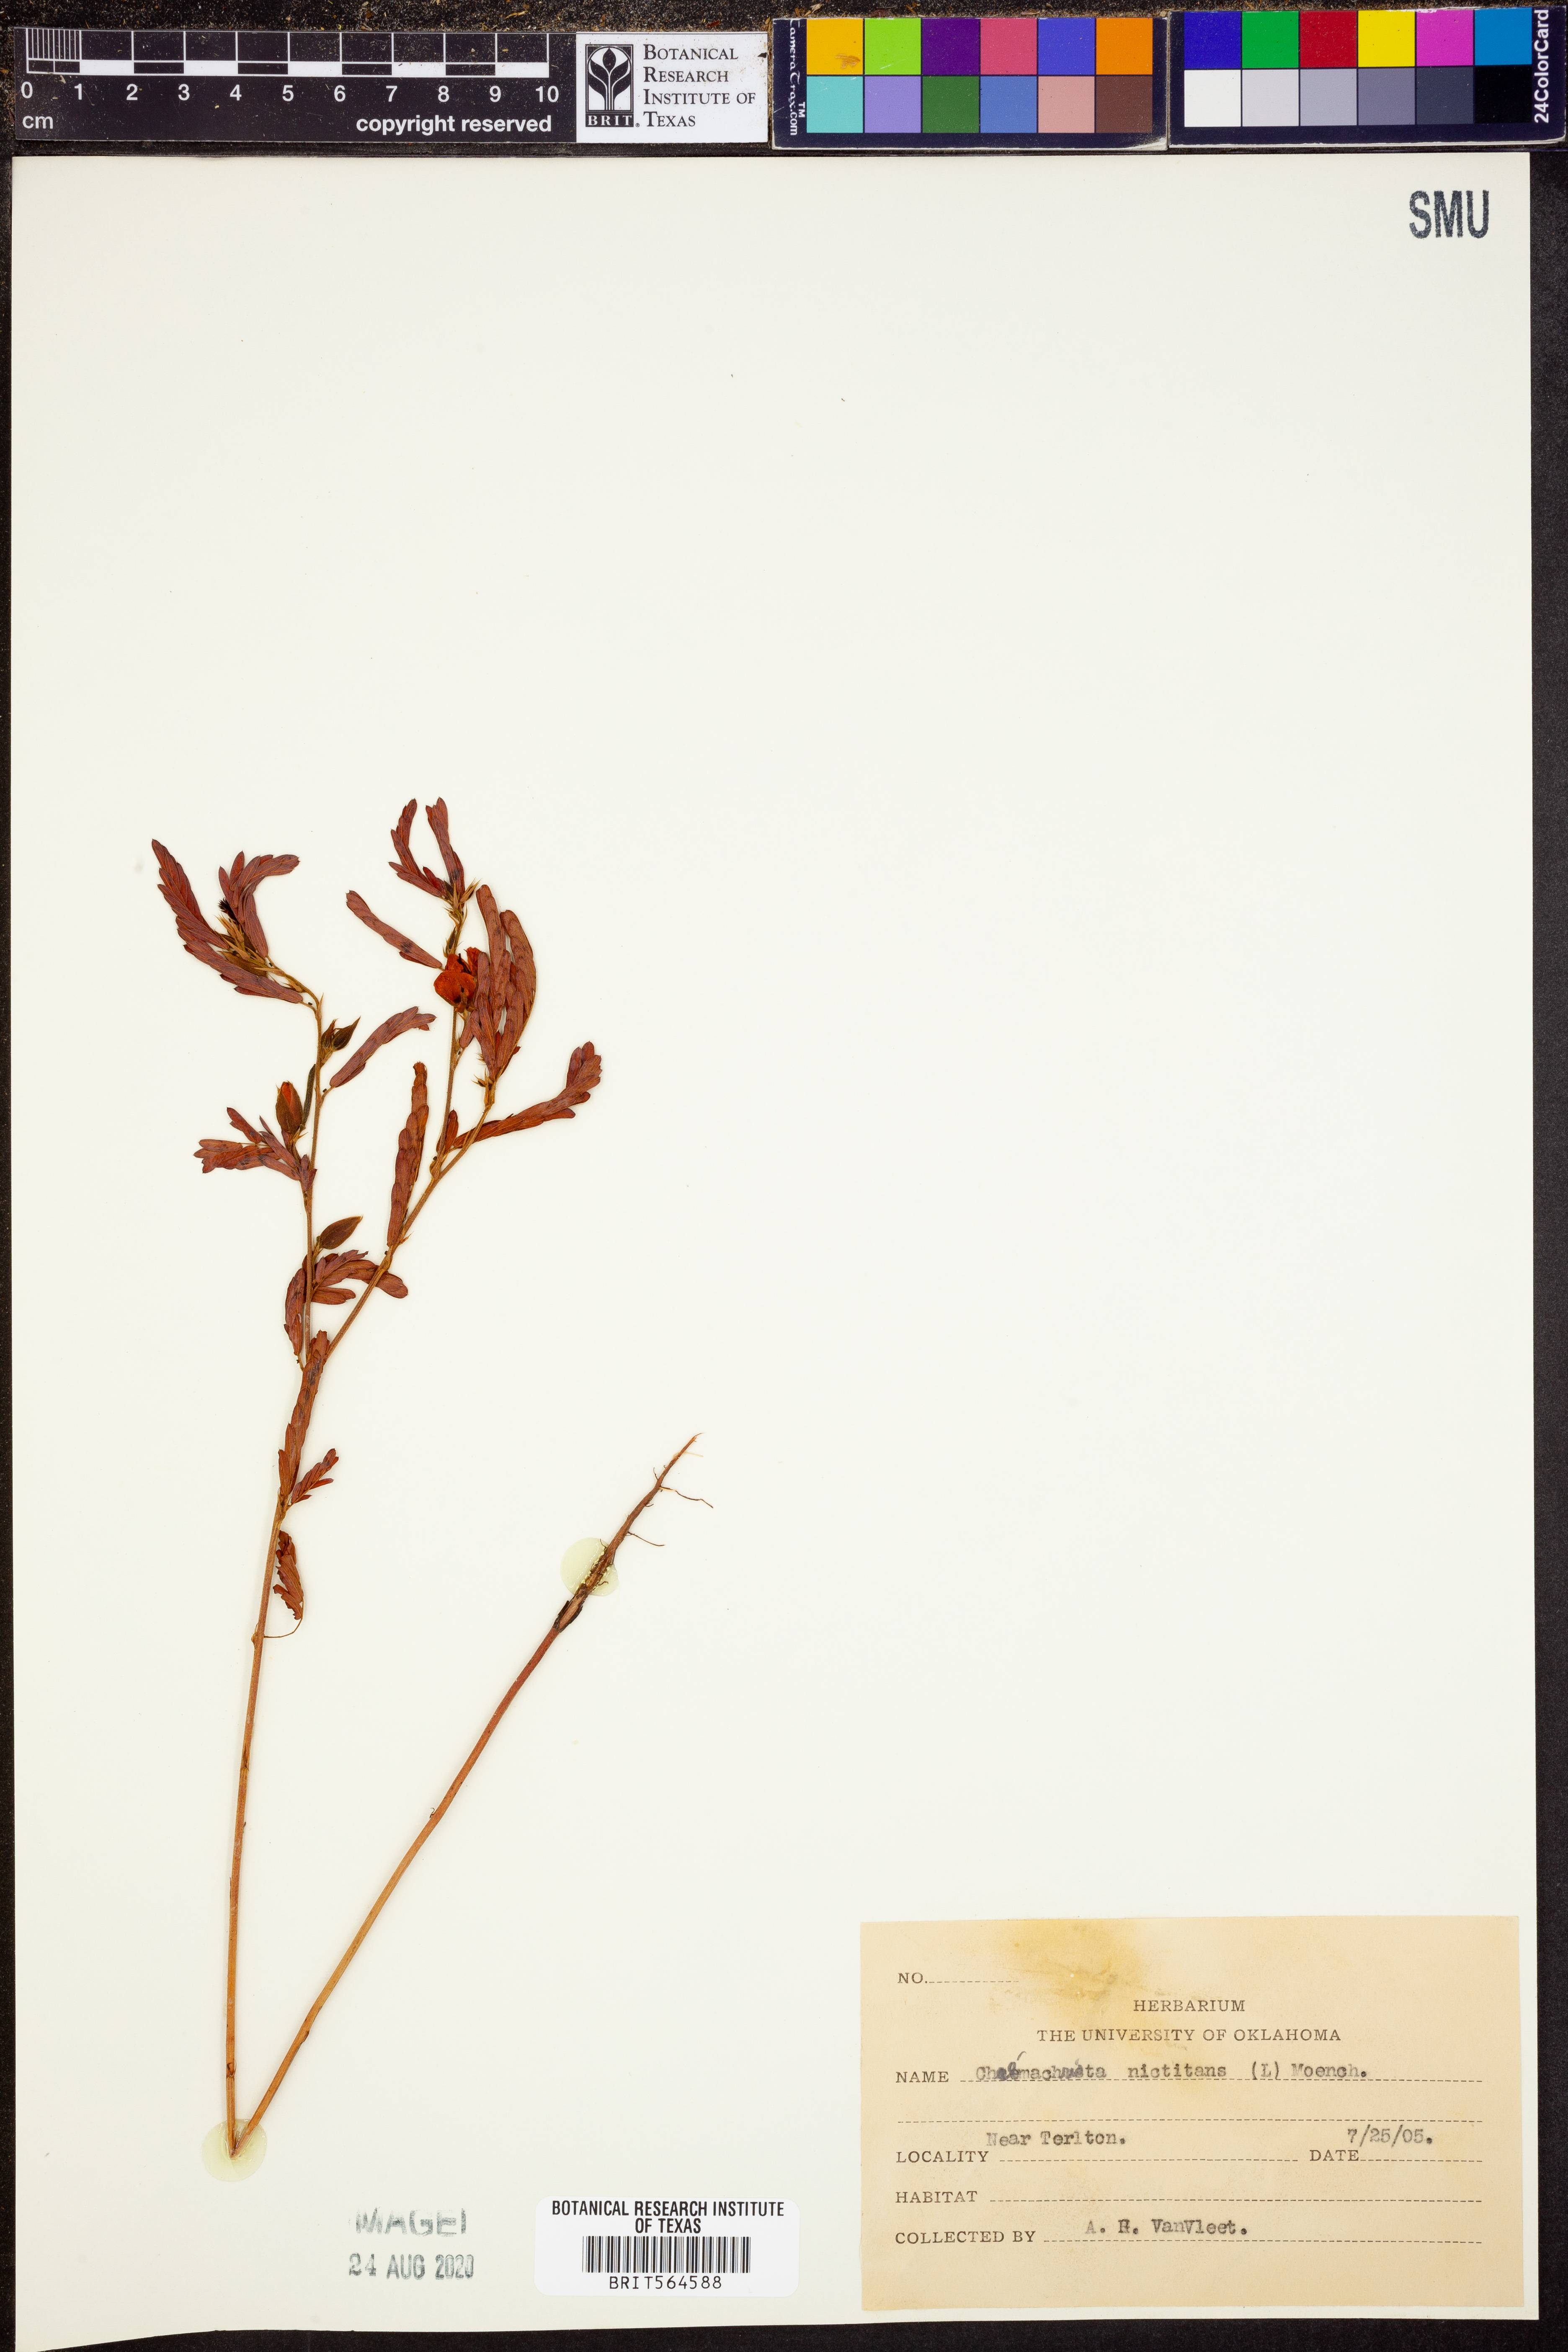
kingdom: Plantae
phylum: Tracheophyta
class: Magnoliopsida
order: Fabales
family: Fabaceae
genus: Chamaecrista
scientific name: Chamaecrista nictitans
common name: Sensitive cassia
